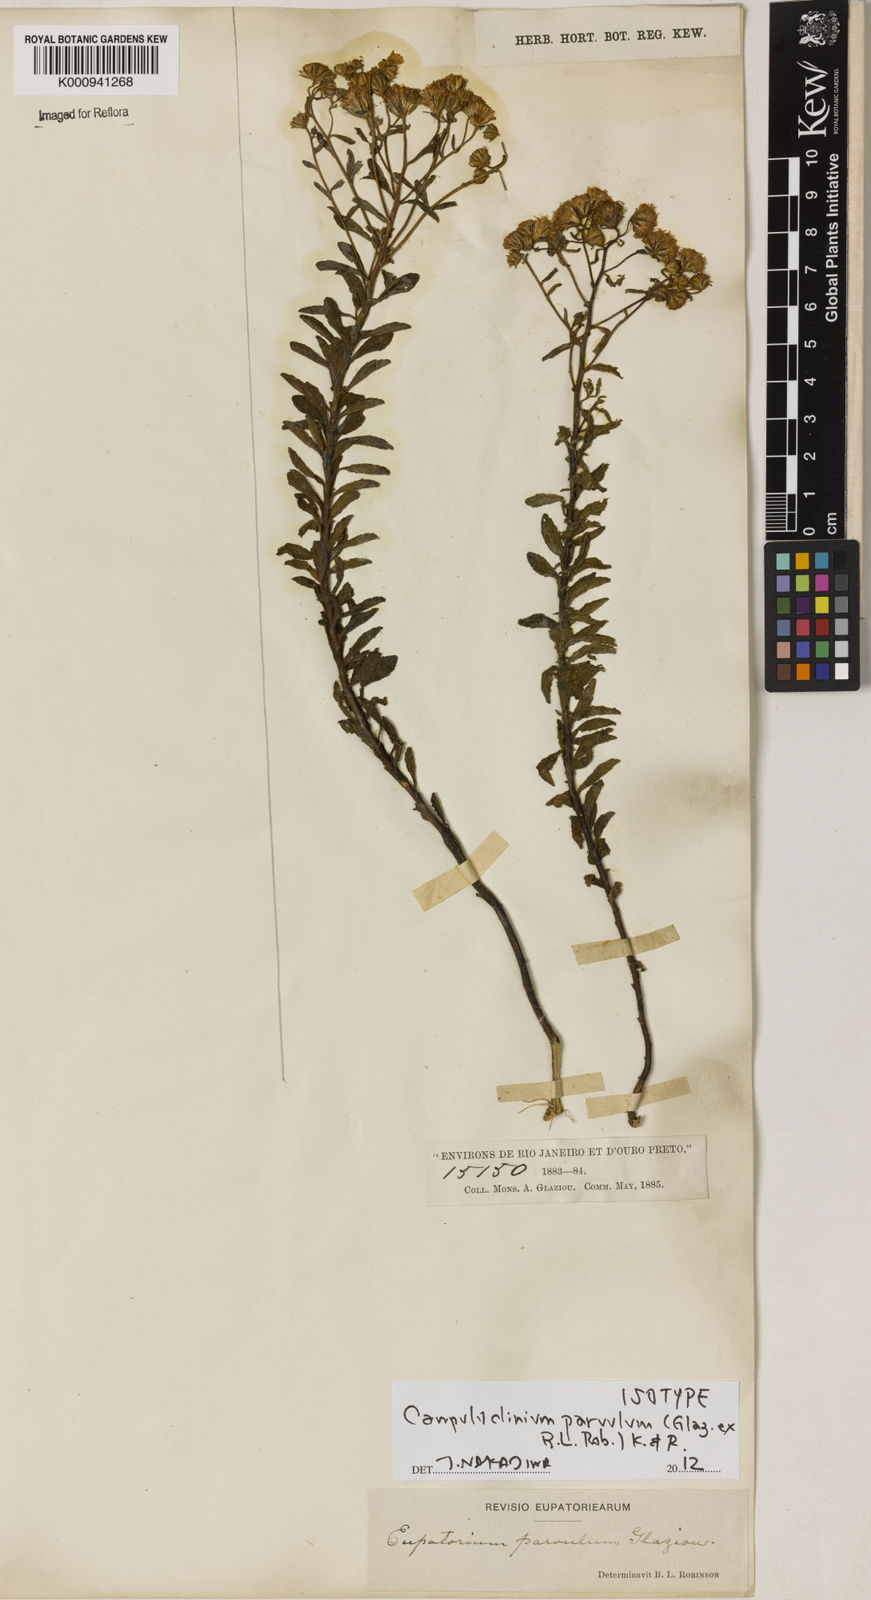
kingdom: Plantae
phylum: Tracheophyta
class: Magnoliopsida
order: Asterales
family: Asteraceae
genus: Campuloclinium
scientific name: Campuloclinium parvulum
